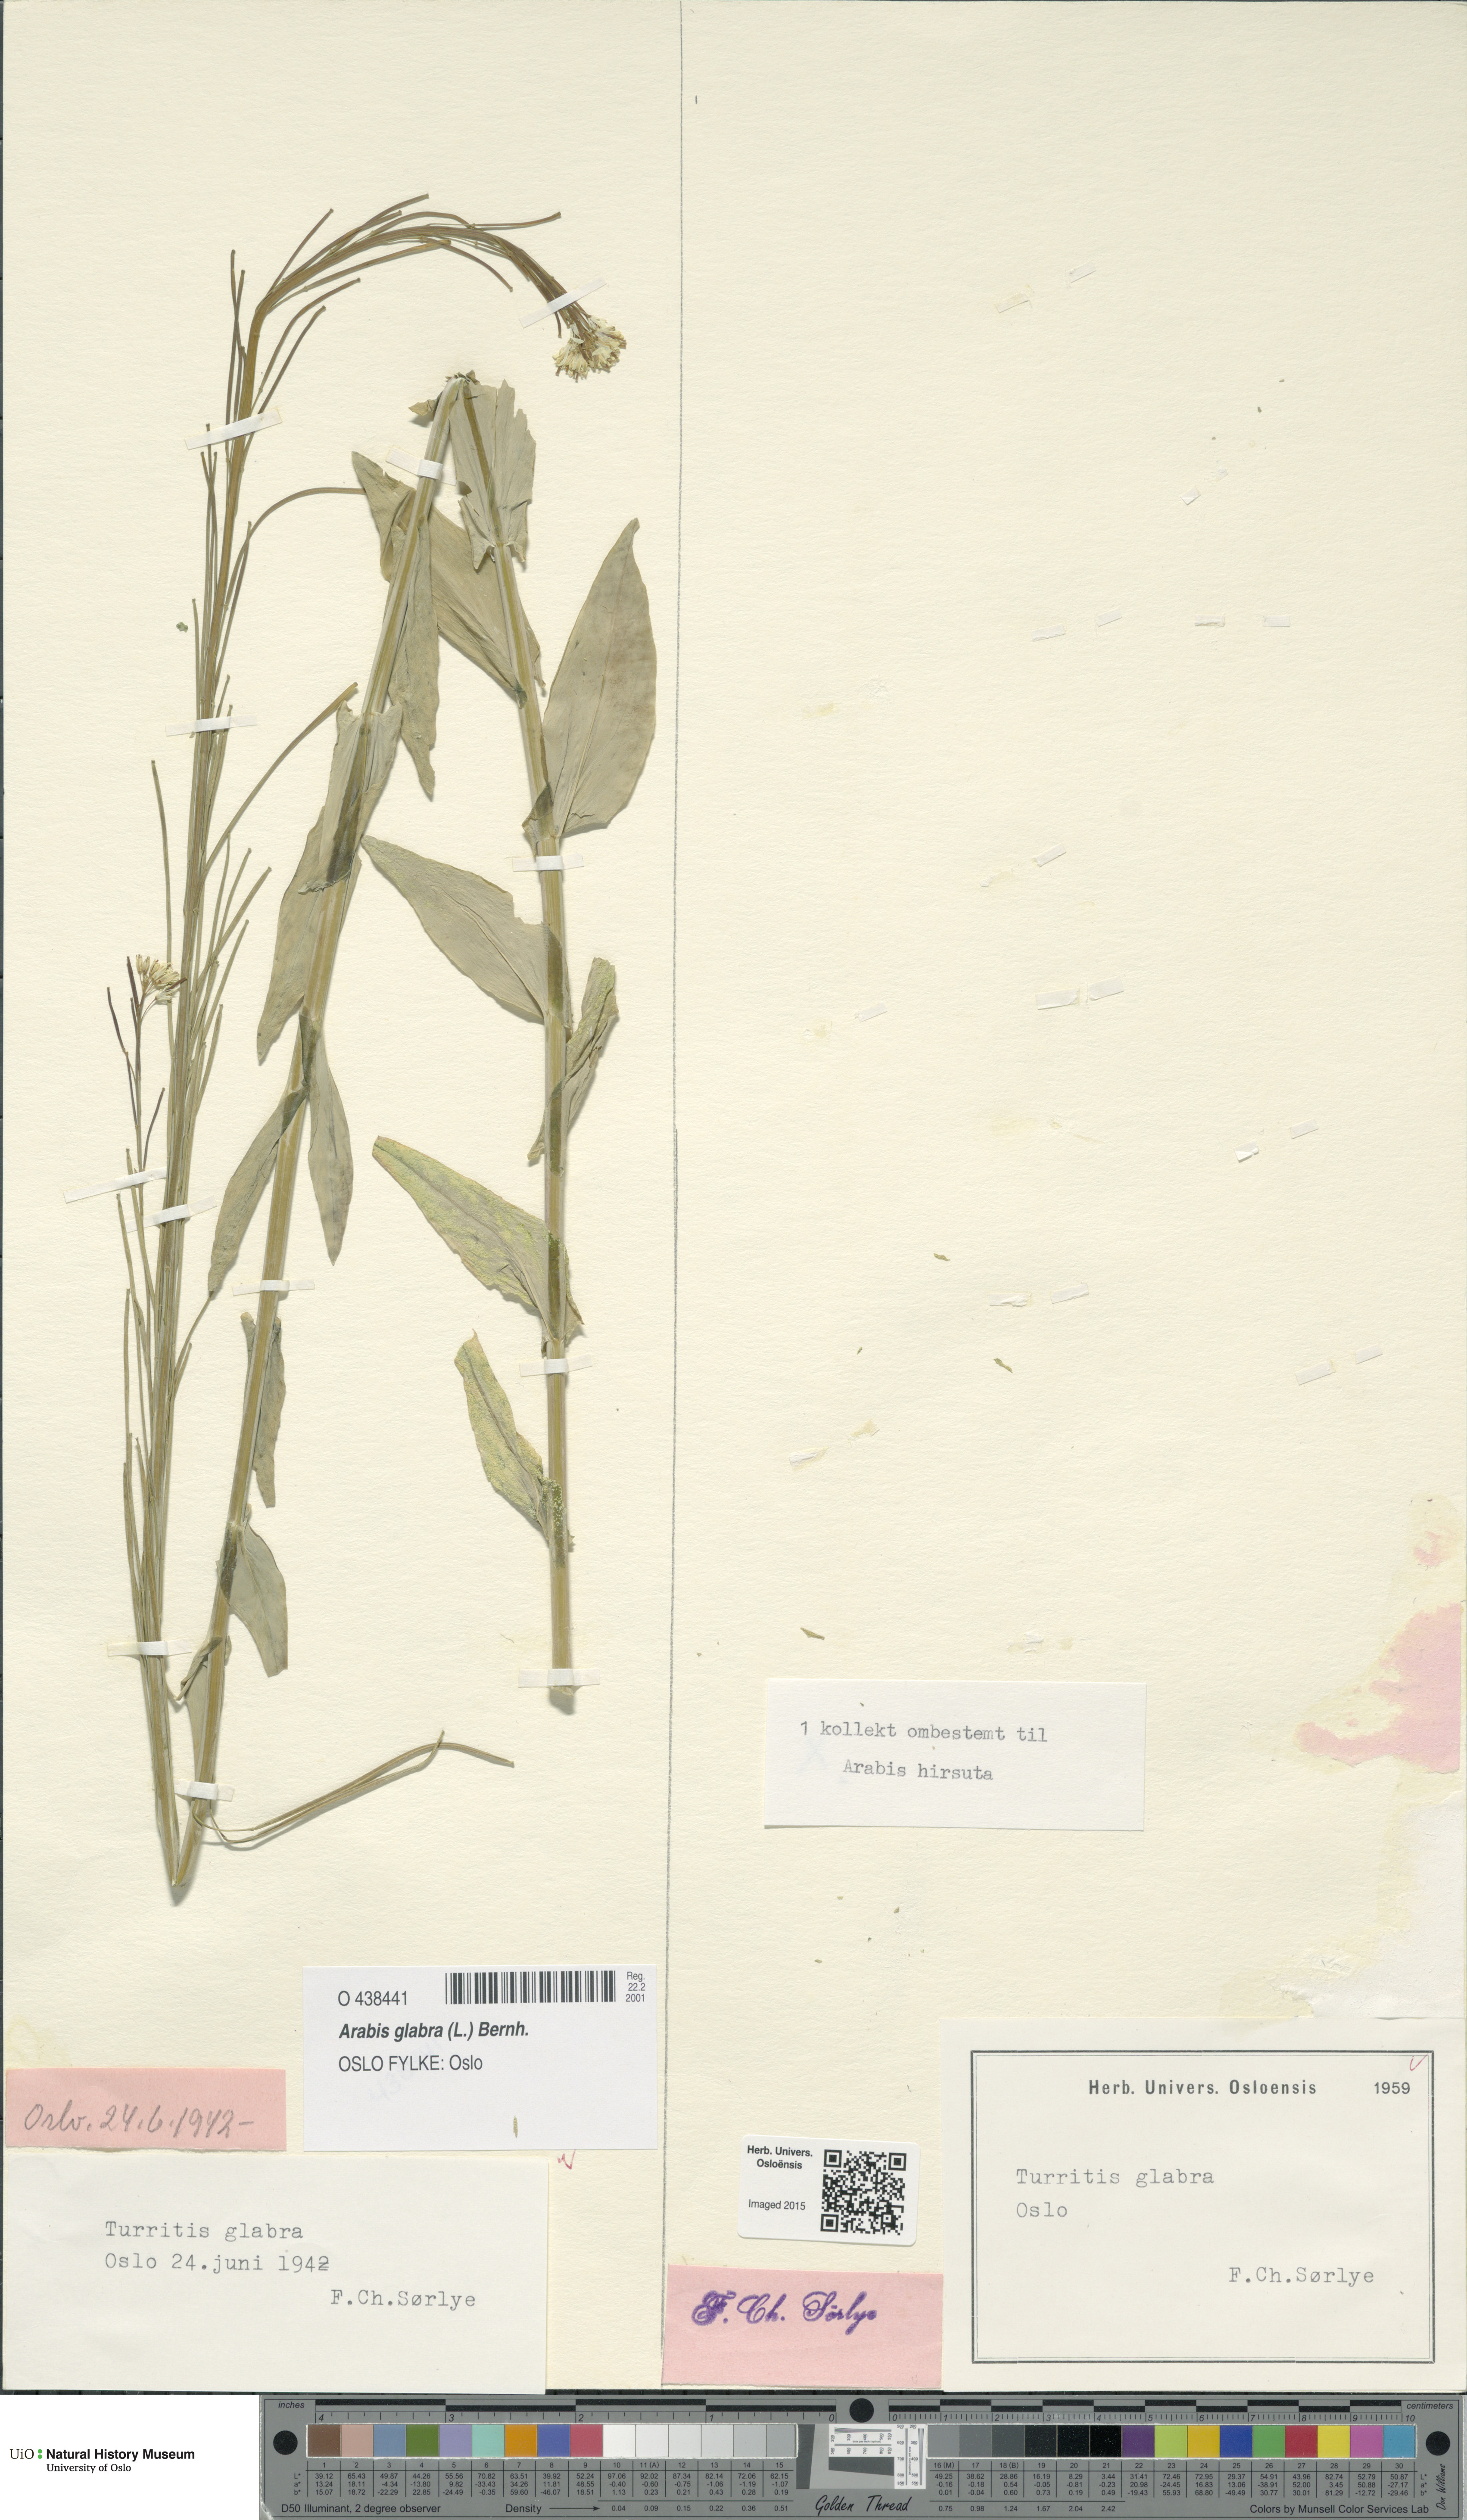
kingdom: Plantae
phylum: Tracheophyta
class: Magnoliopsida
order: Brassicales
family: Brassicaceae
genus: Turritis
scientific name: Turritis glabra
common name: Tower rockcress
